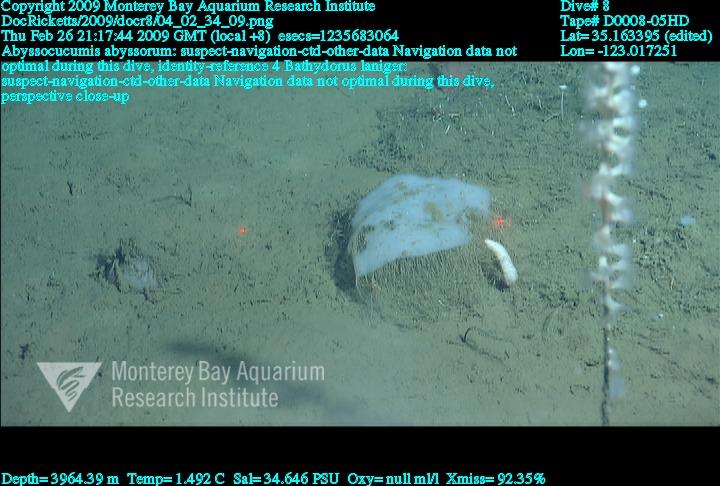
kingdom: Animalia
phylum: Porifera
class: Hexactinellida
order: Lyssacinosida
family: Rossellidae
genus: Bathydorus
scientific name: Bathydorus laniger
